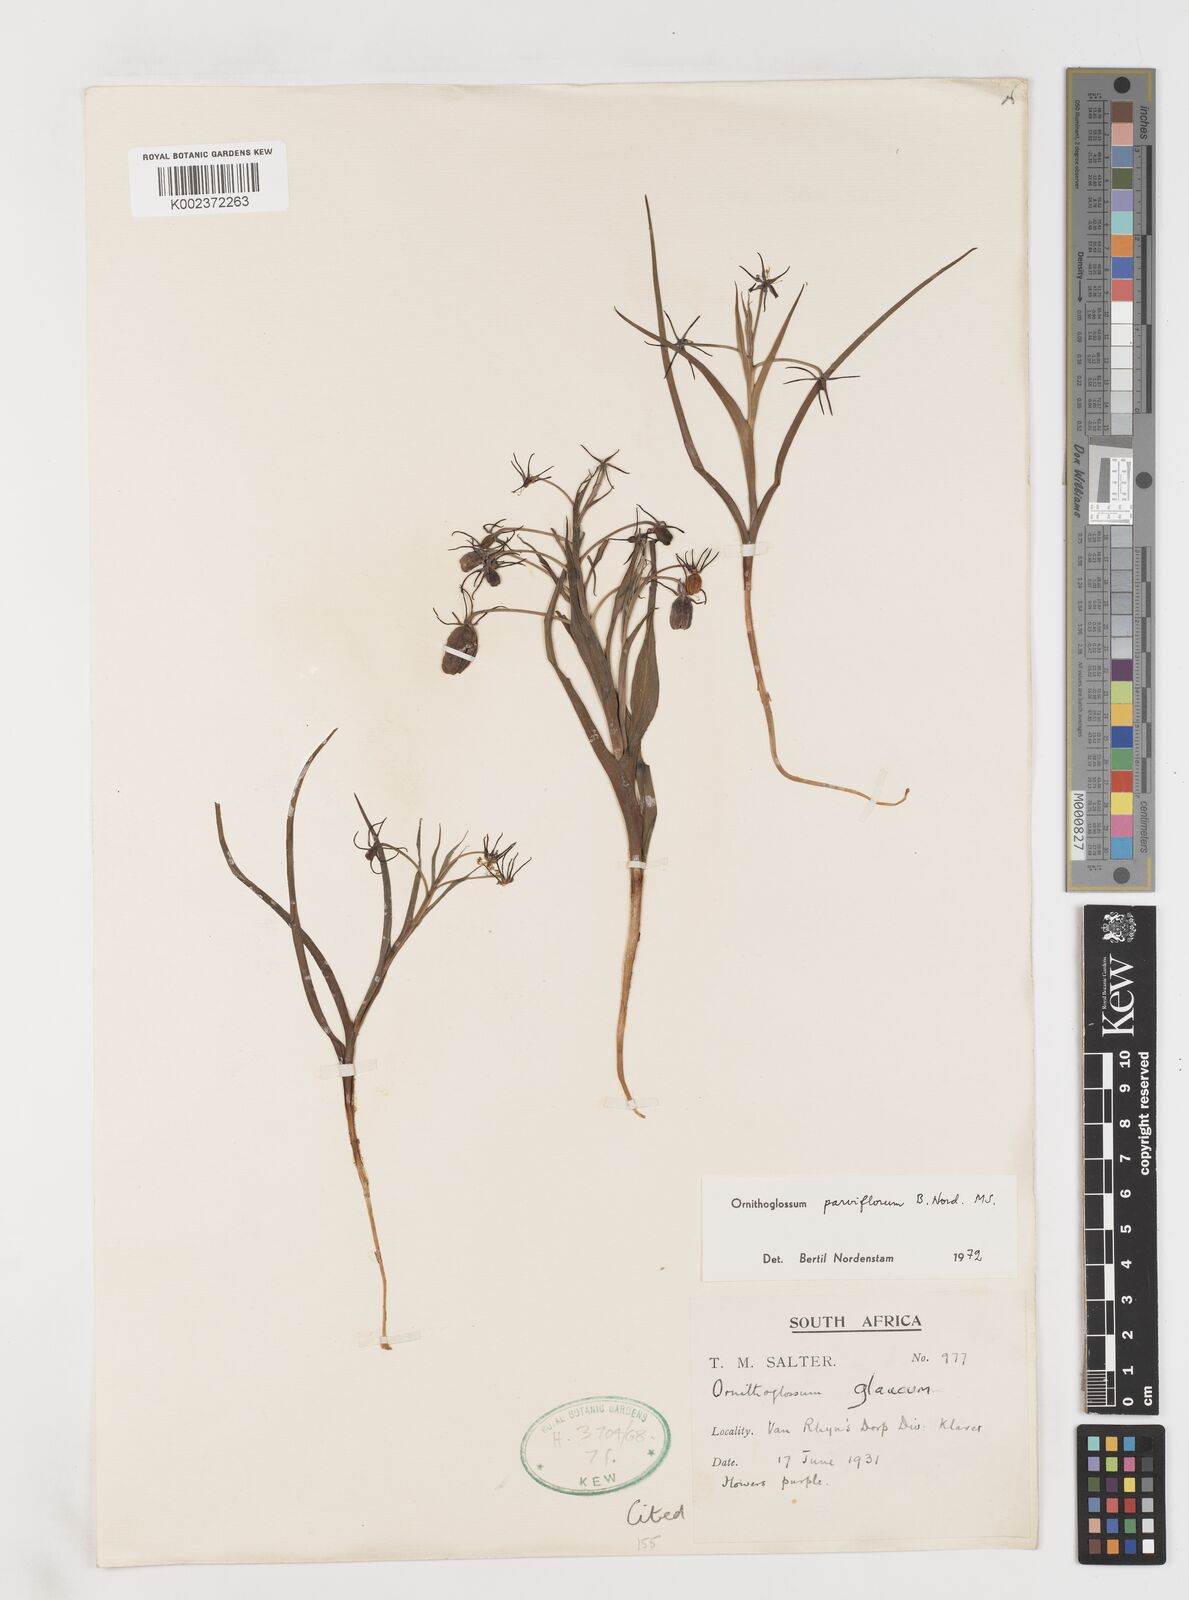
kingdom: Plantae
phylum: Tracheophyta
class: Liliopsida
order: Liliales
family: Colchicaceae
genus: Ornithoglossum
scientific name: Ornithoglossum parviflorum
